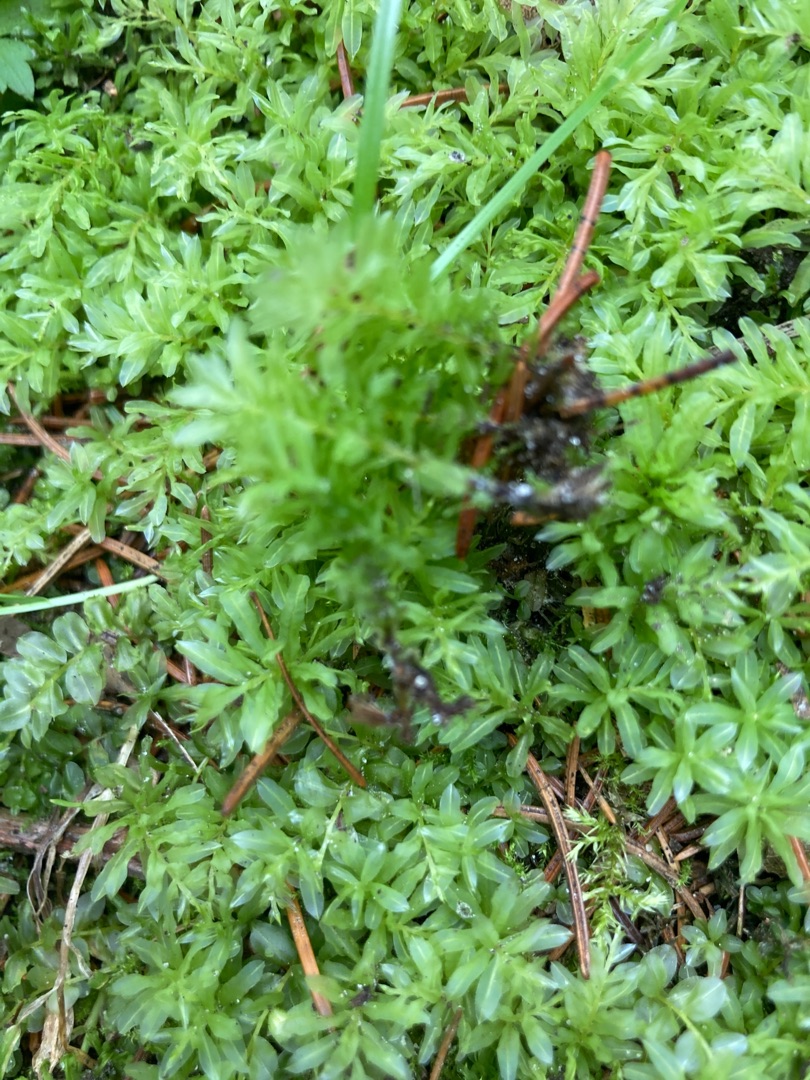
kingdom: Plantae
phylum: Bryophyta
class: Bryopsida
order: Bryales
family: Mniaceae
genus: Plagiomnium
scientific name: Plagiomnium undulatum
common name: Bølget krybstjerne
